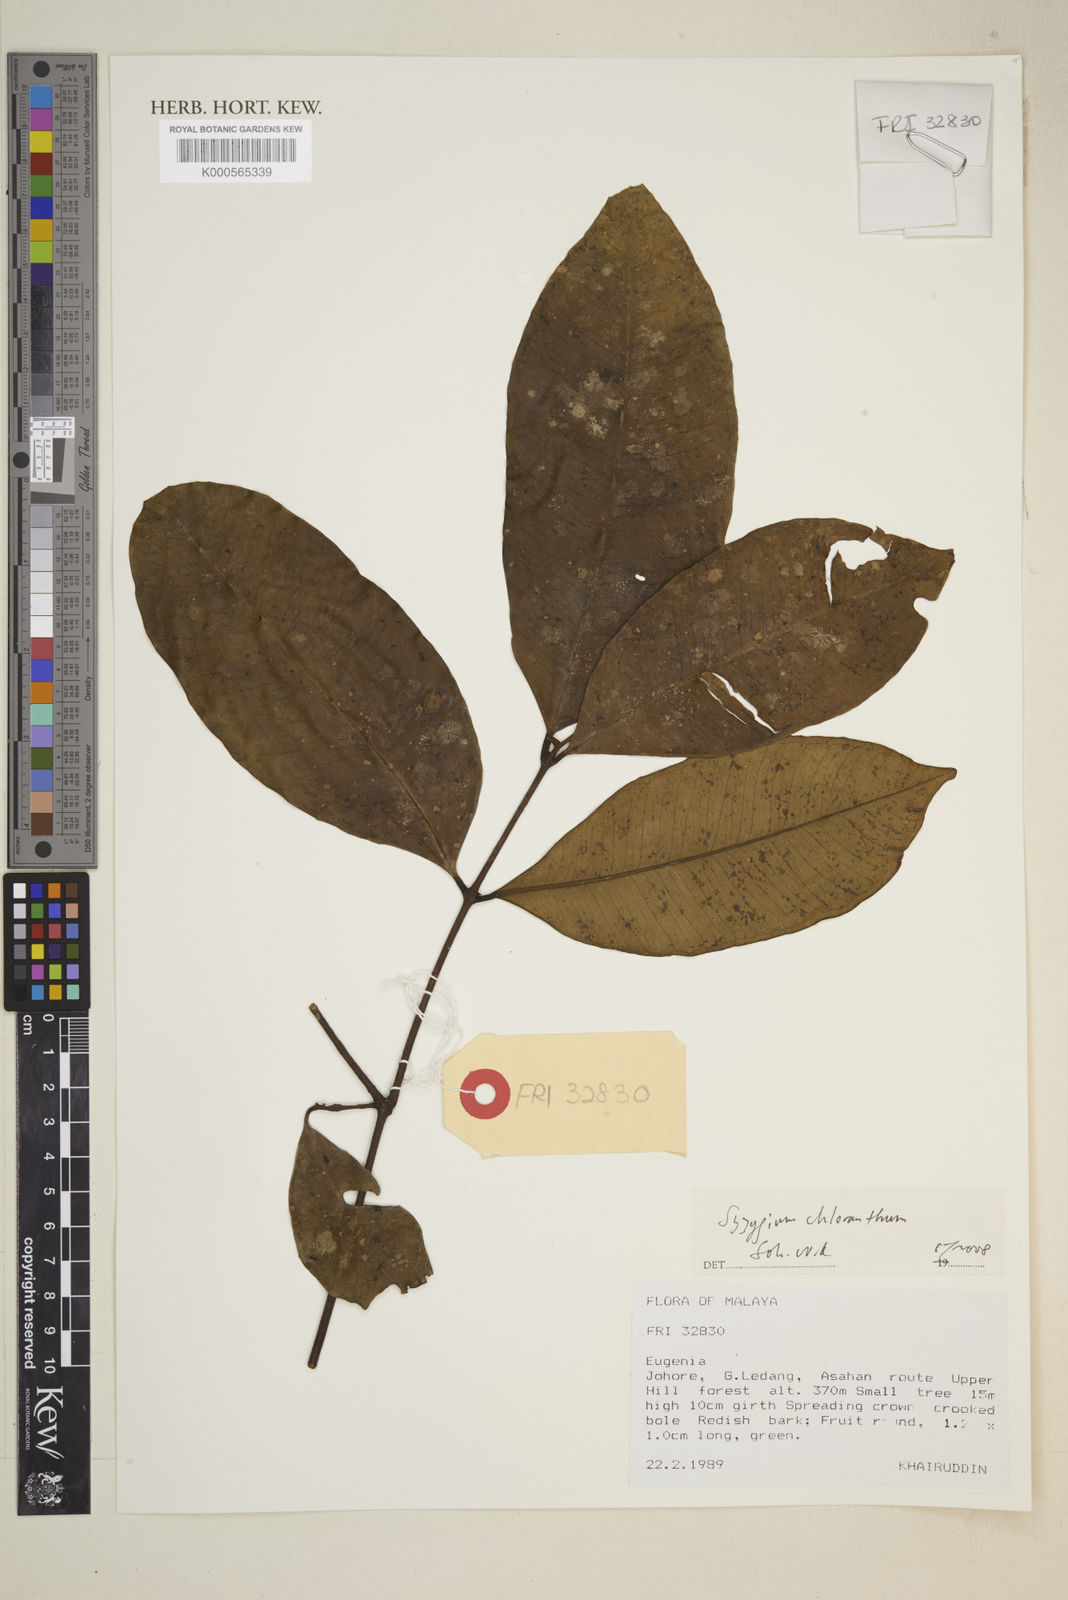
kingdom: Plantae
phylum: Tracheophyta
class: Magnoliopsida
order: Myrtales
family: Myrtaceae
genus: Syzygium
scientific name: Syzygium chloranthum
